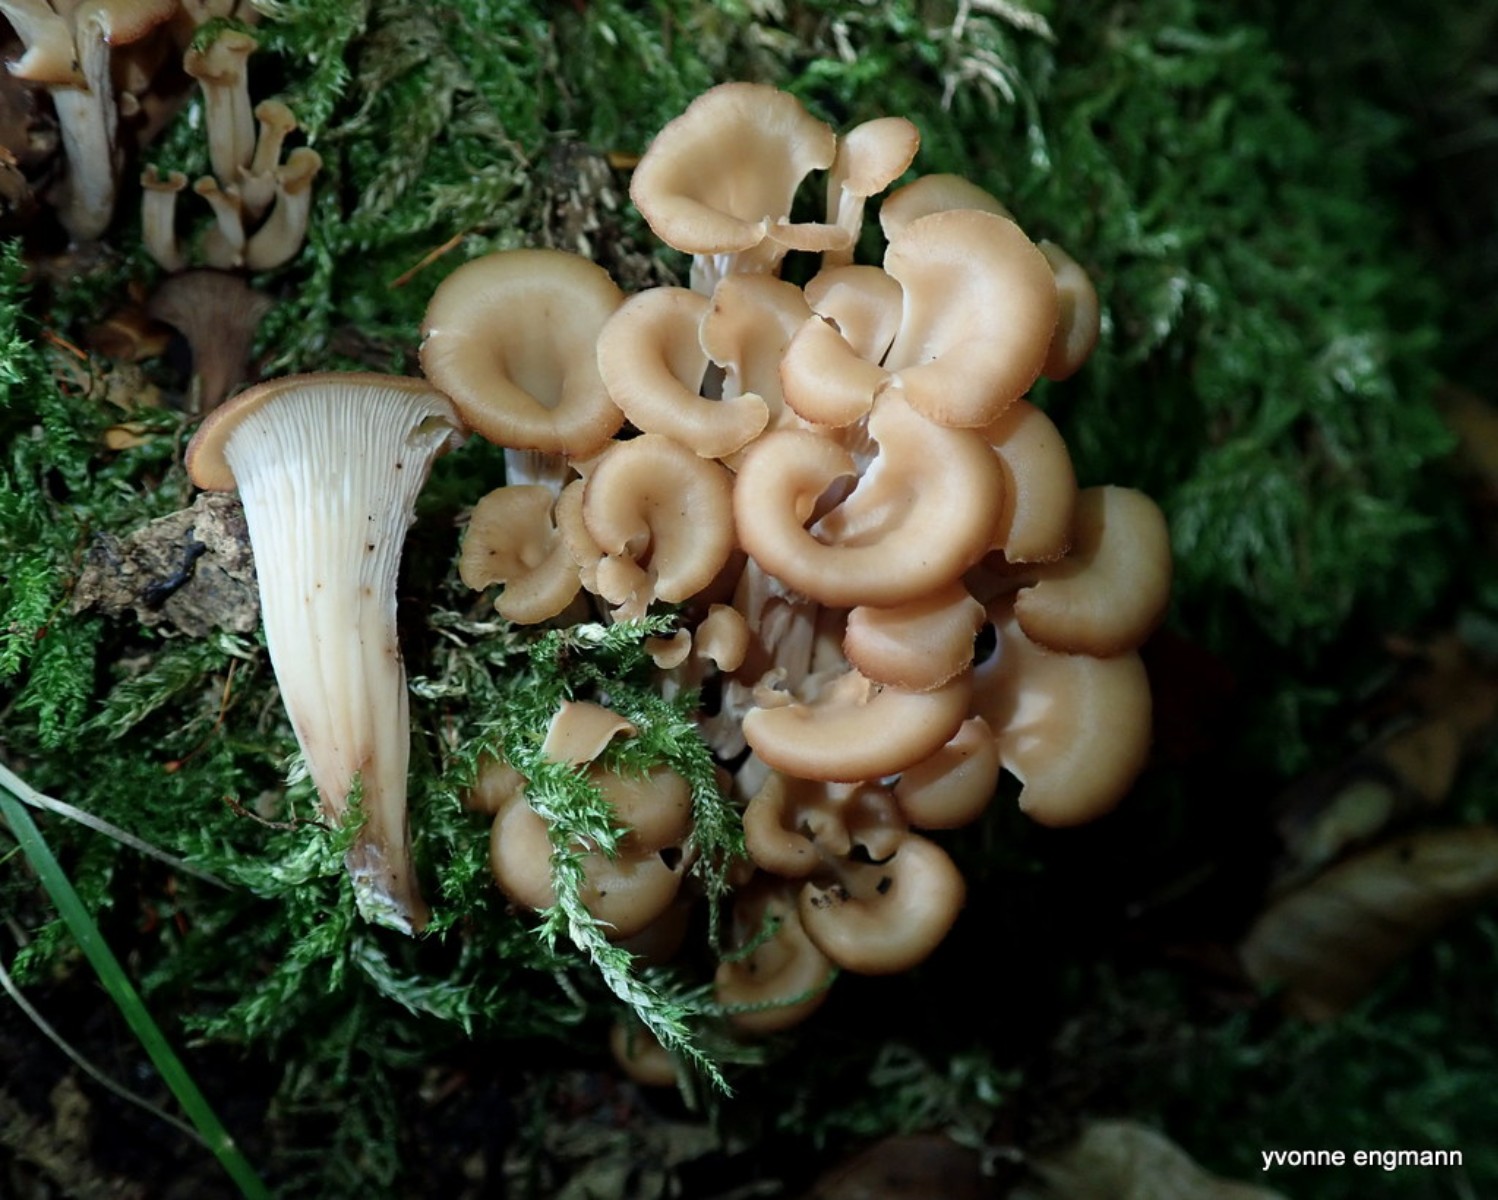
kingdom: Fungi
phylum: Basidiomycota
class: Agaricomycetes
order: Russulales
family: Auriscalpiaceae
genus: Lentinellus
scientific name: Lentinellus cochleatus
